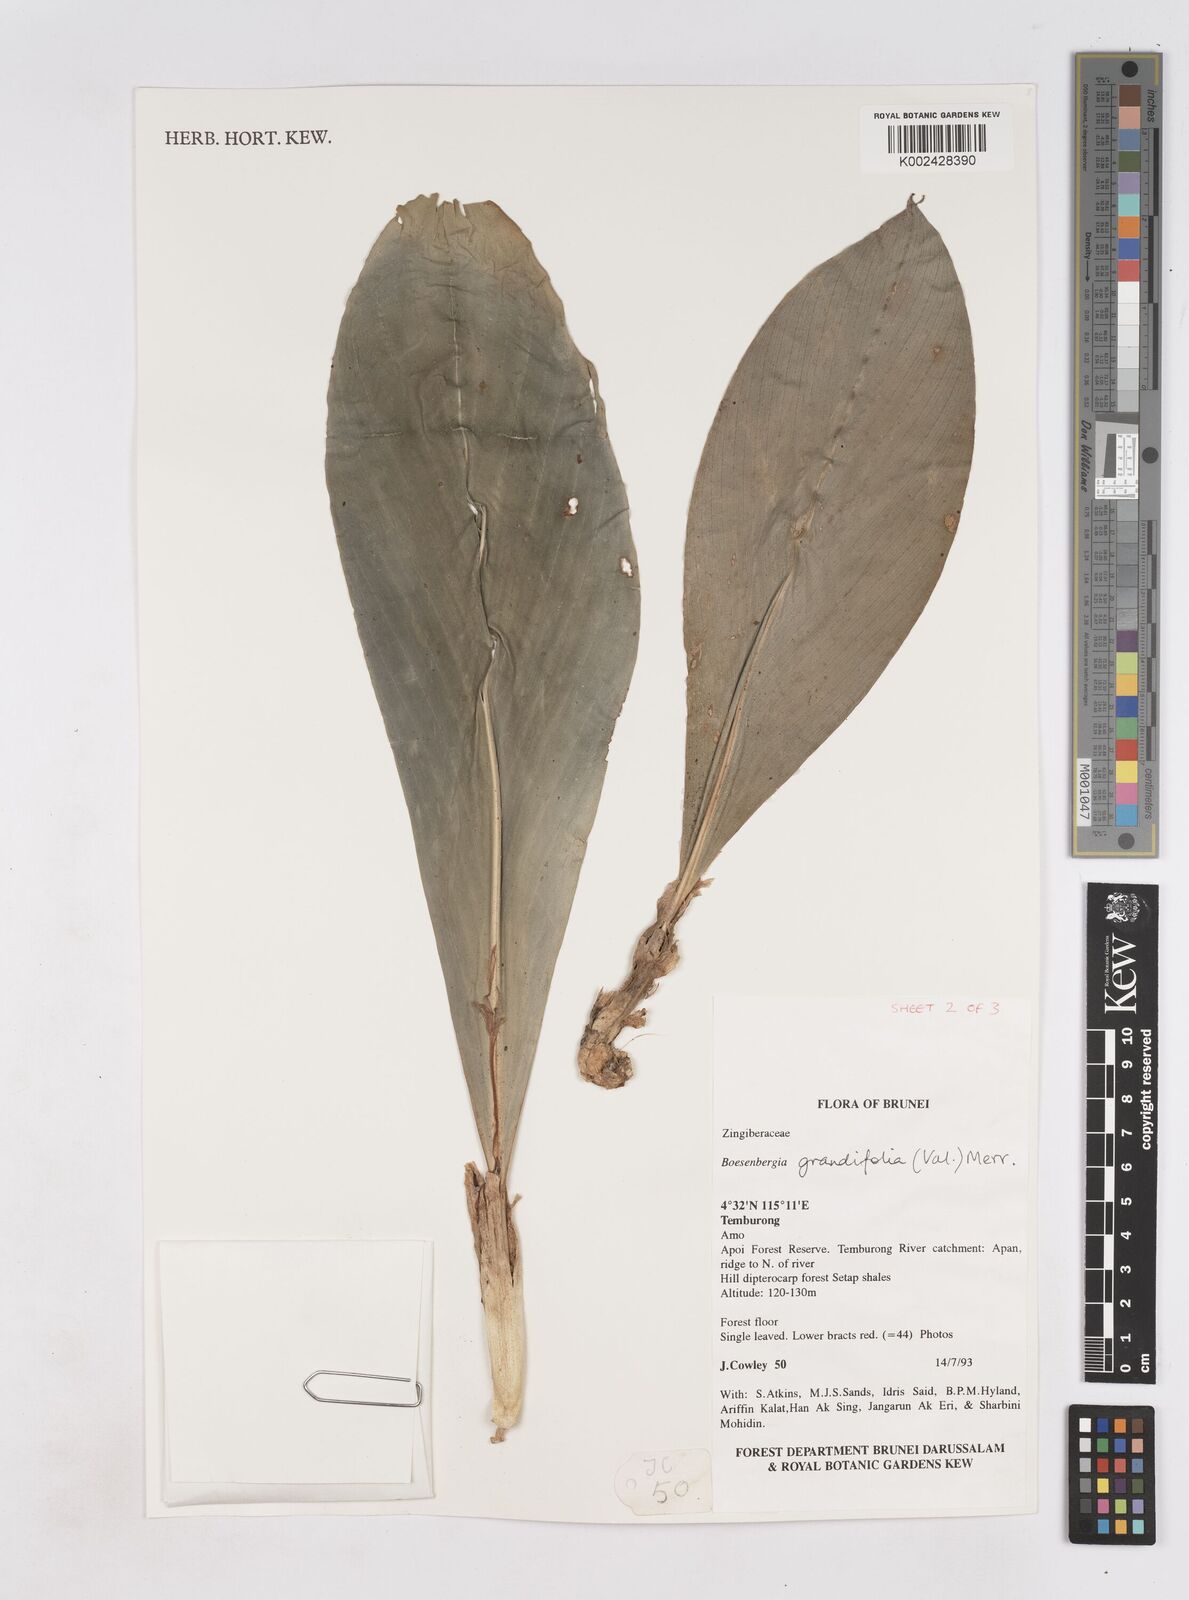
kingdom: Plantae
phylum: Tracheophyta
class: Liliopsida
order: Zingiberales
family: Zingiberaceae
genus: Boesenbergia
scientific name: Boesenbergia grandifolia
